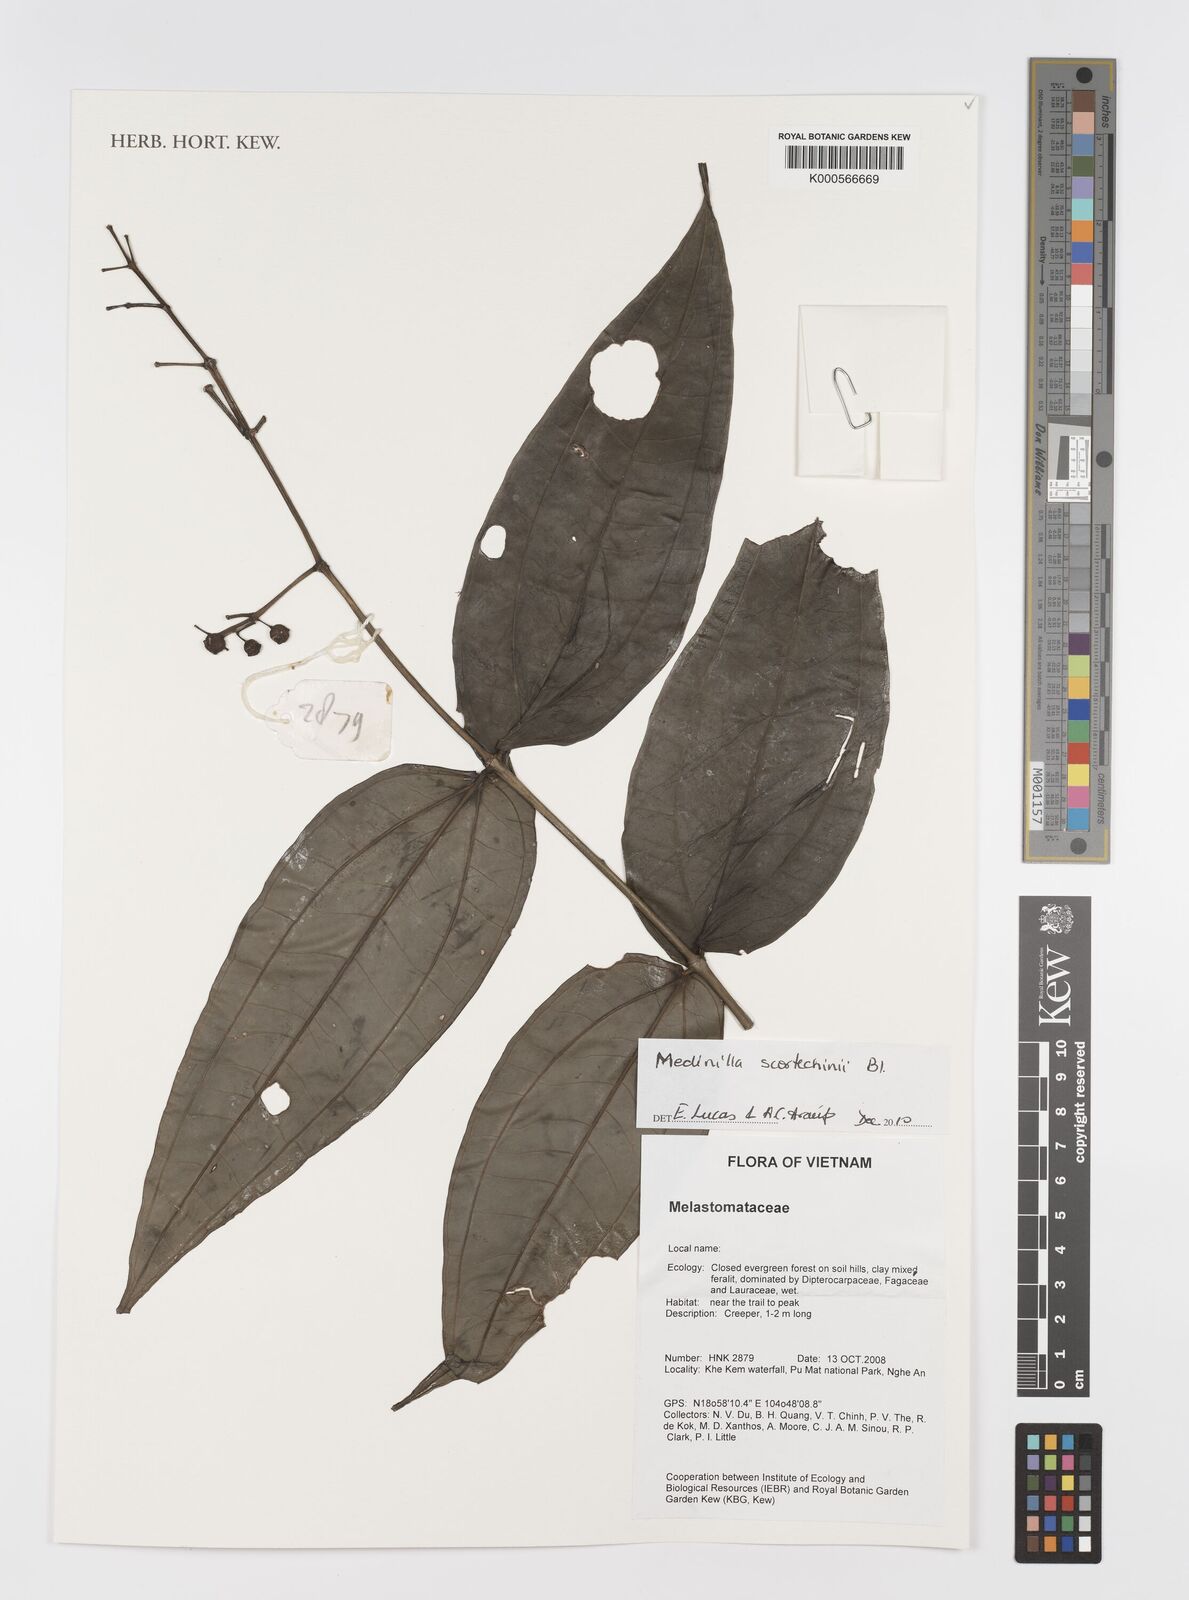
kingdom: Plantae
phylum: Tracheophyta
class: Magnoliopsida
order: Myrtales
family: Melastomataceae
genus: Medinilla
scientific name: Medinilla
